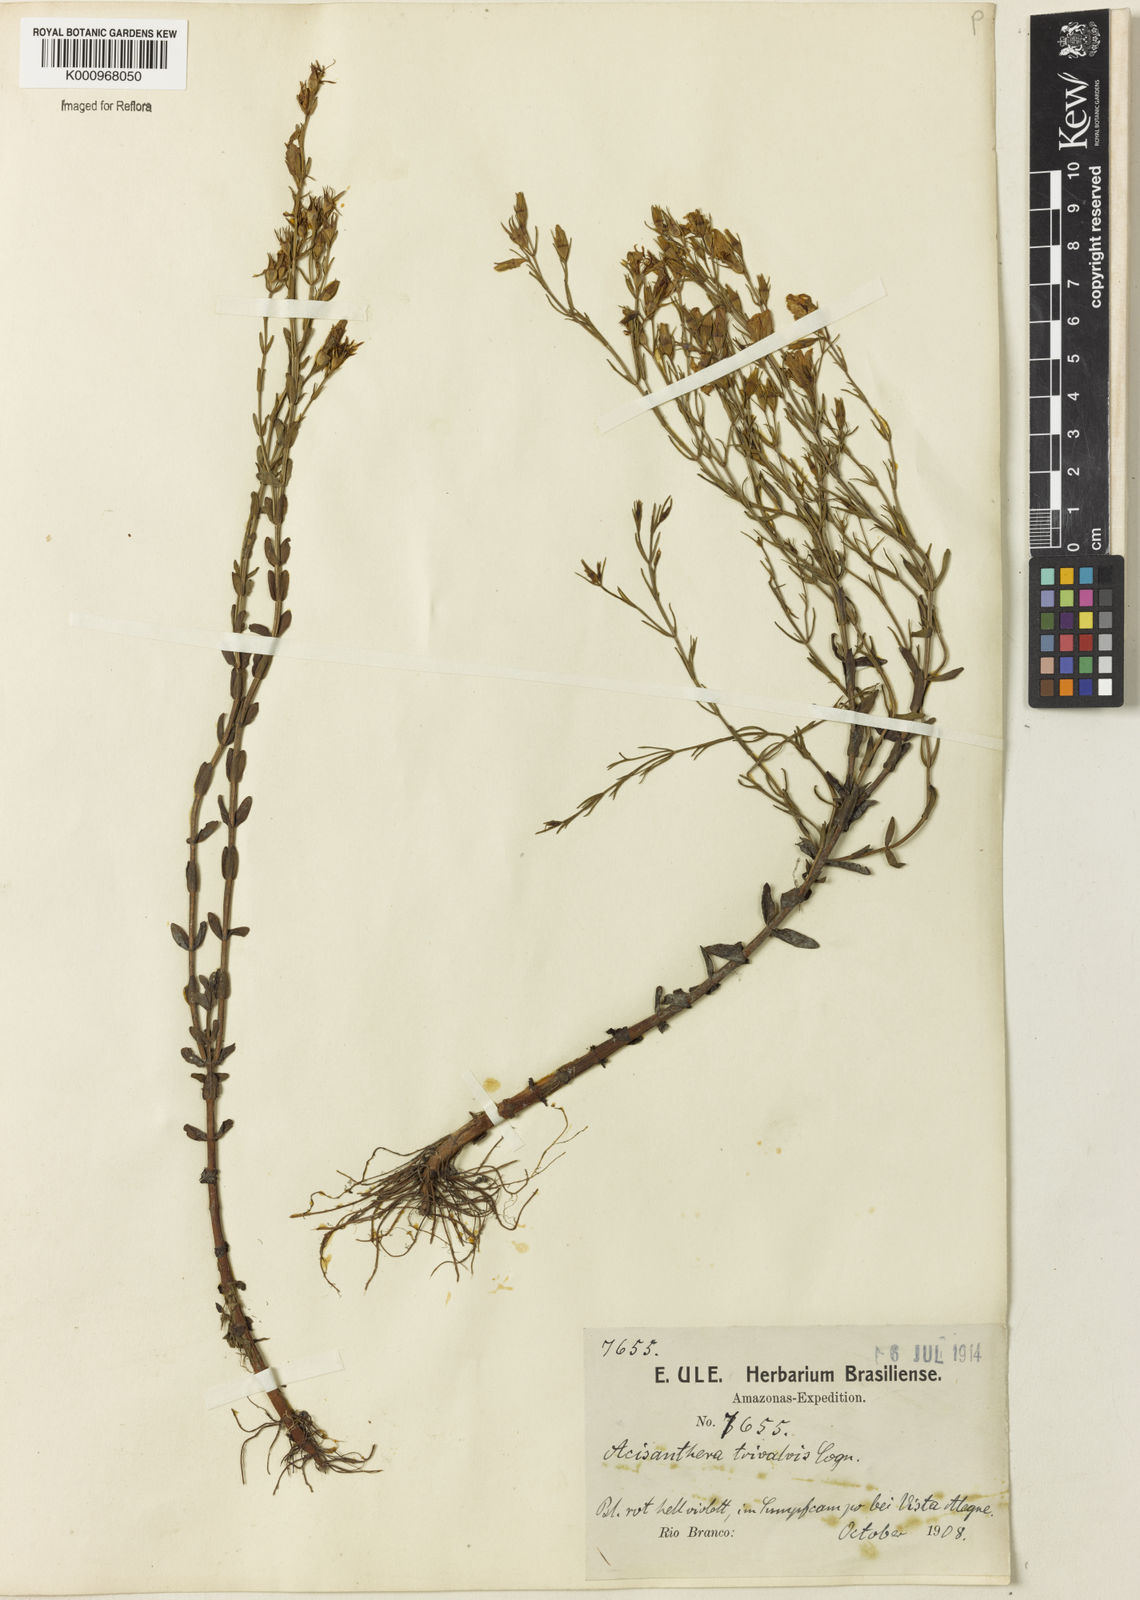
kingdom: Plantae
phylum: Tracheophyta
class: Magnoliopsida
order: Myrtales
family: Melastomataceae
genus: Noterophila
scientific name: Noterophila bivalvis
